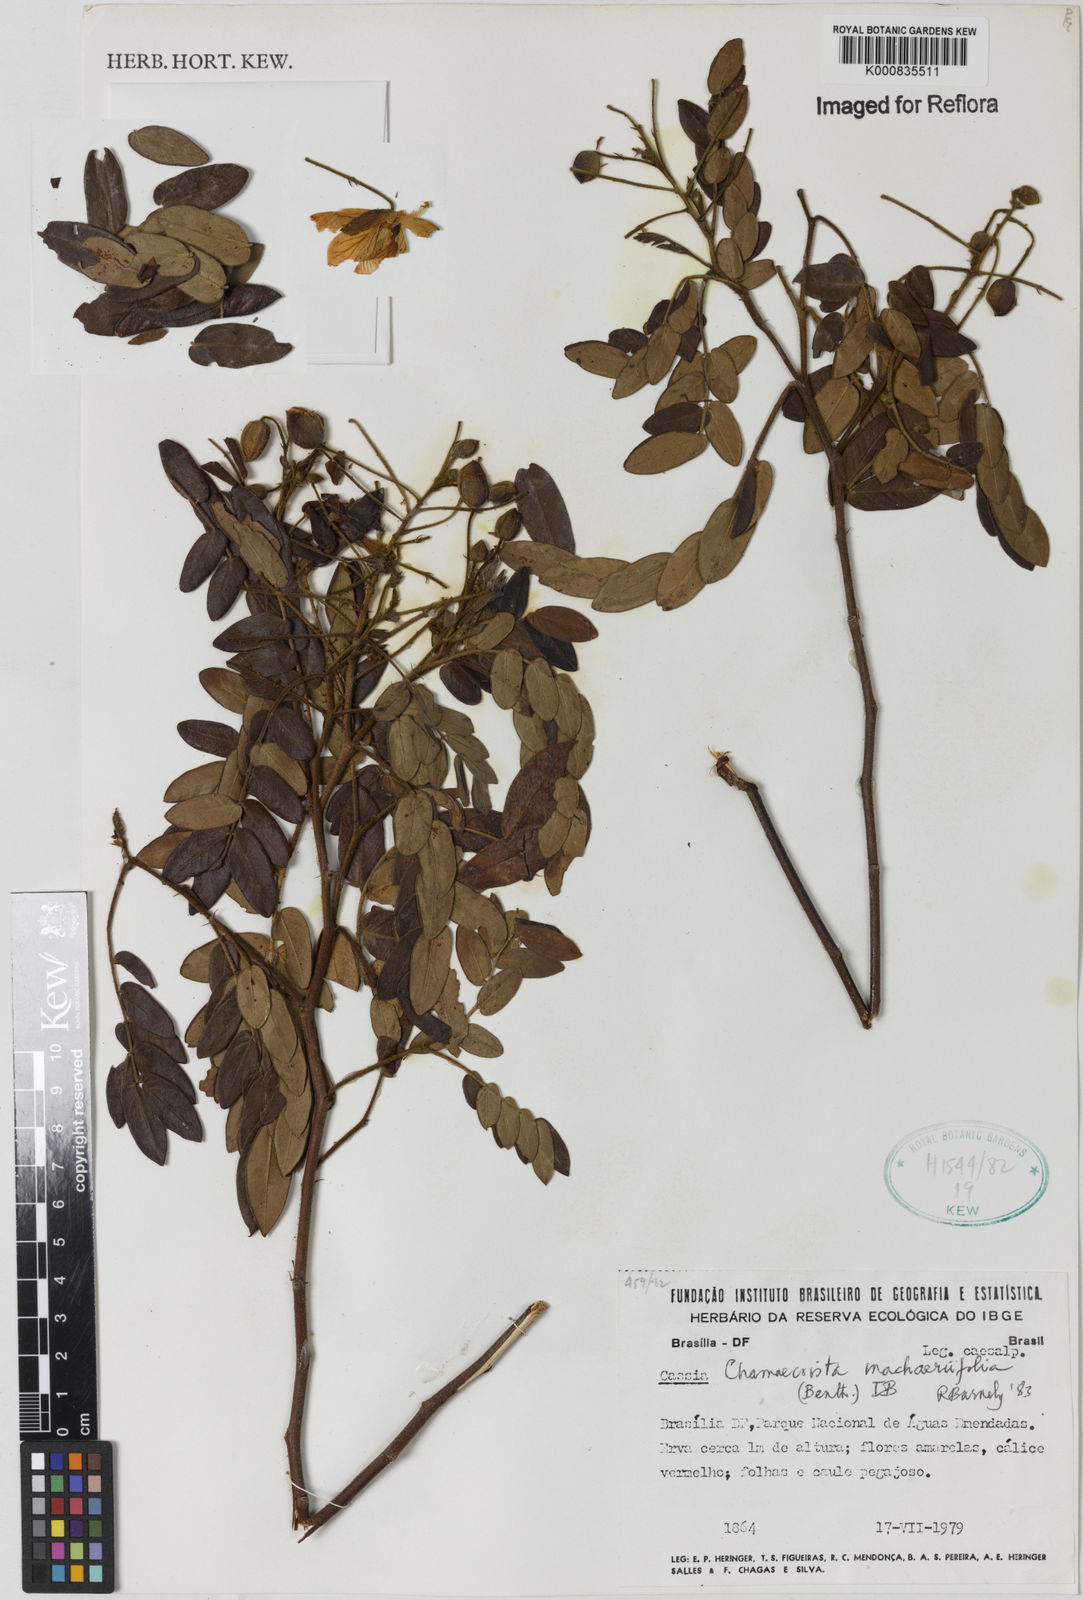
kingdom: Plantae
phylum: Tracheophyta
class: Magnoliopsida
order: Fabales
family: Fabaceae
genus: Chamaecrista
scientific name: Chamaecrista machaeriifolia
